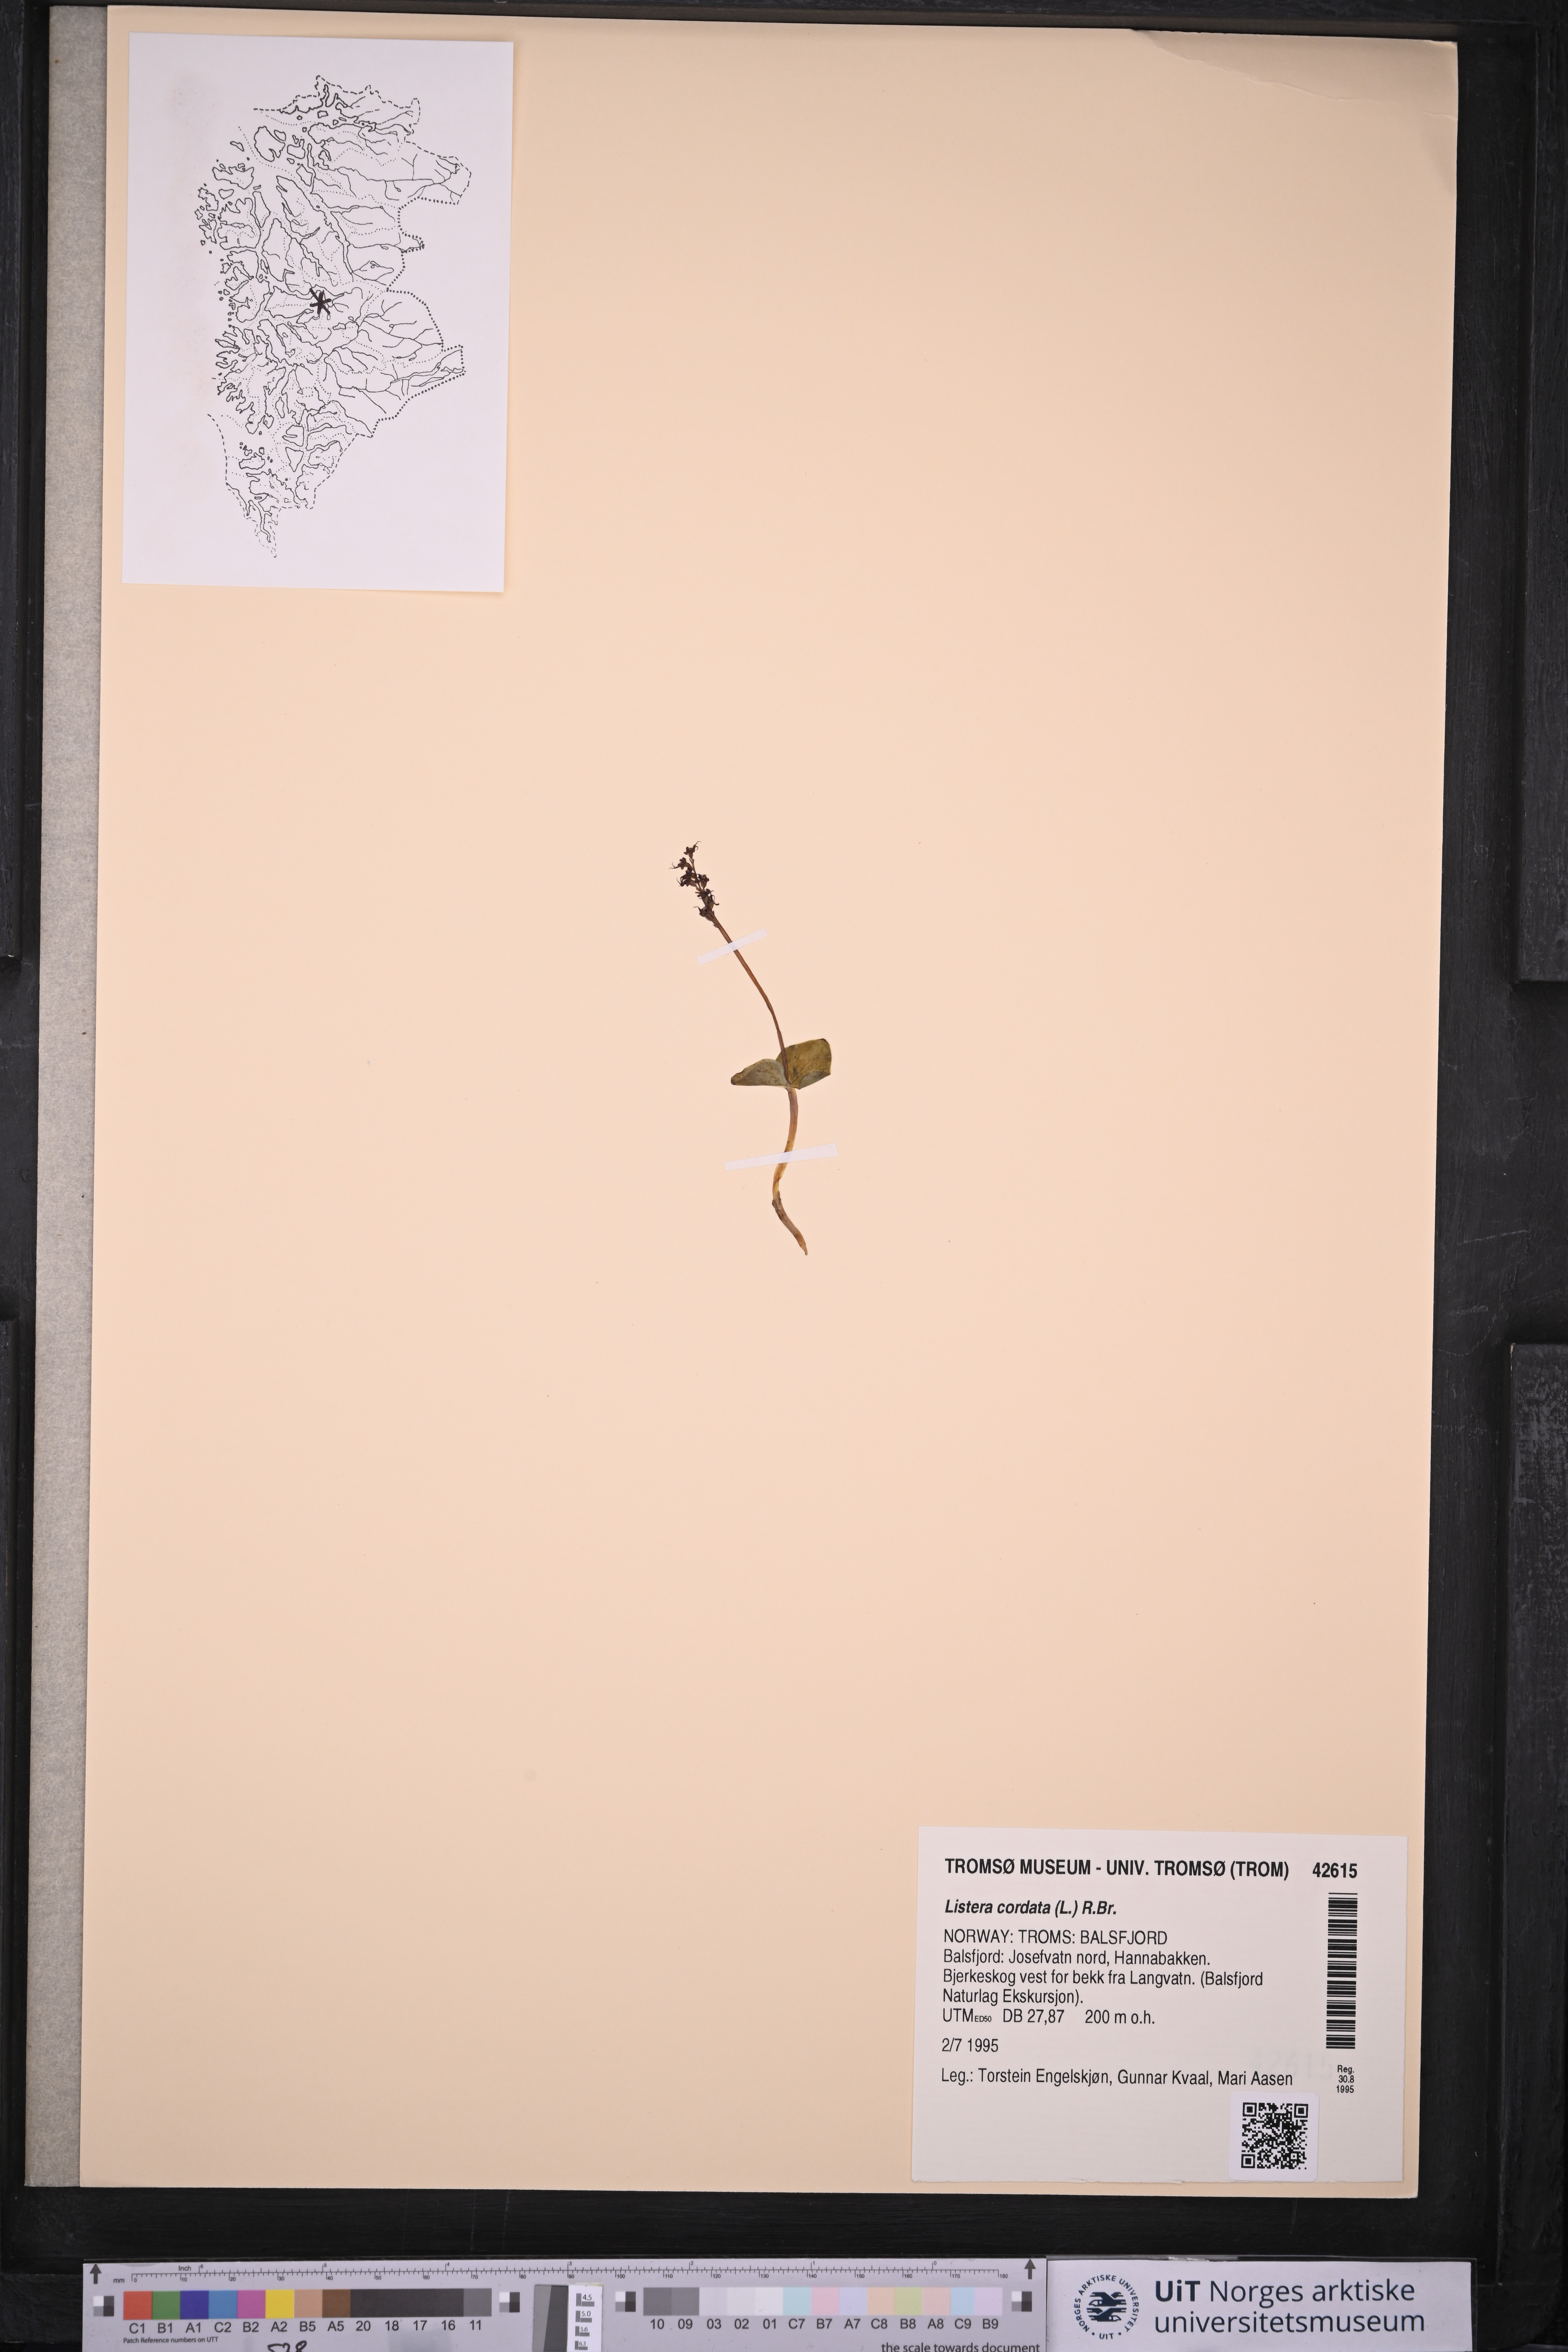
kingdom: Plantae
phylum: Tracheophyta
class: Liliopsida
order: Asparagales
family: Orchidaceae
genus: Neottia
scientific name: Neottia cordata
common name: Lesser twayblade
